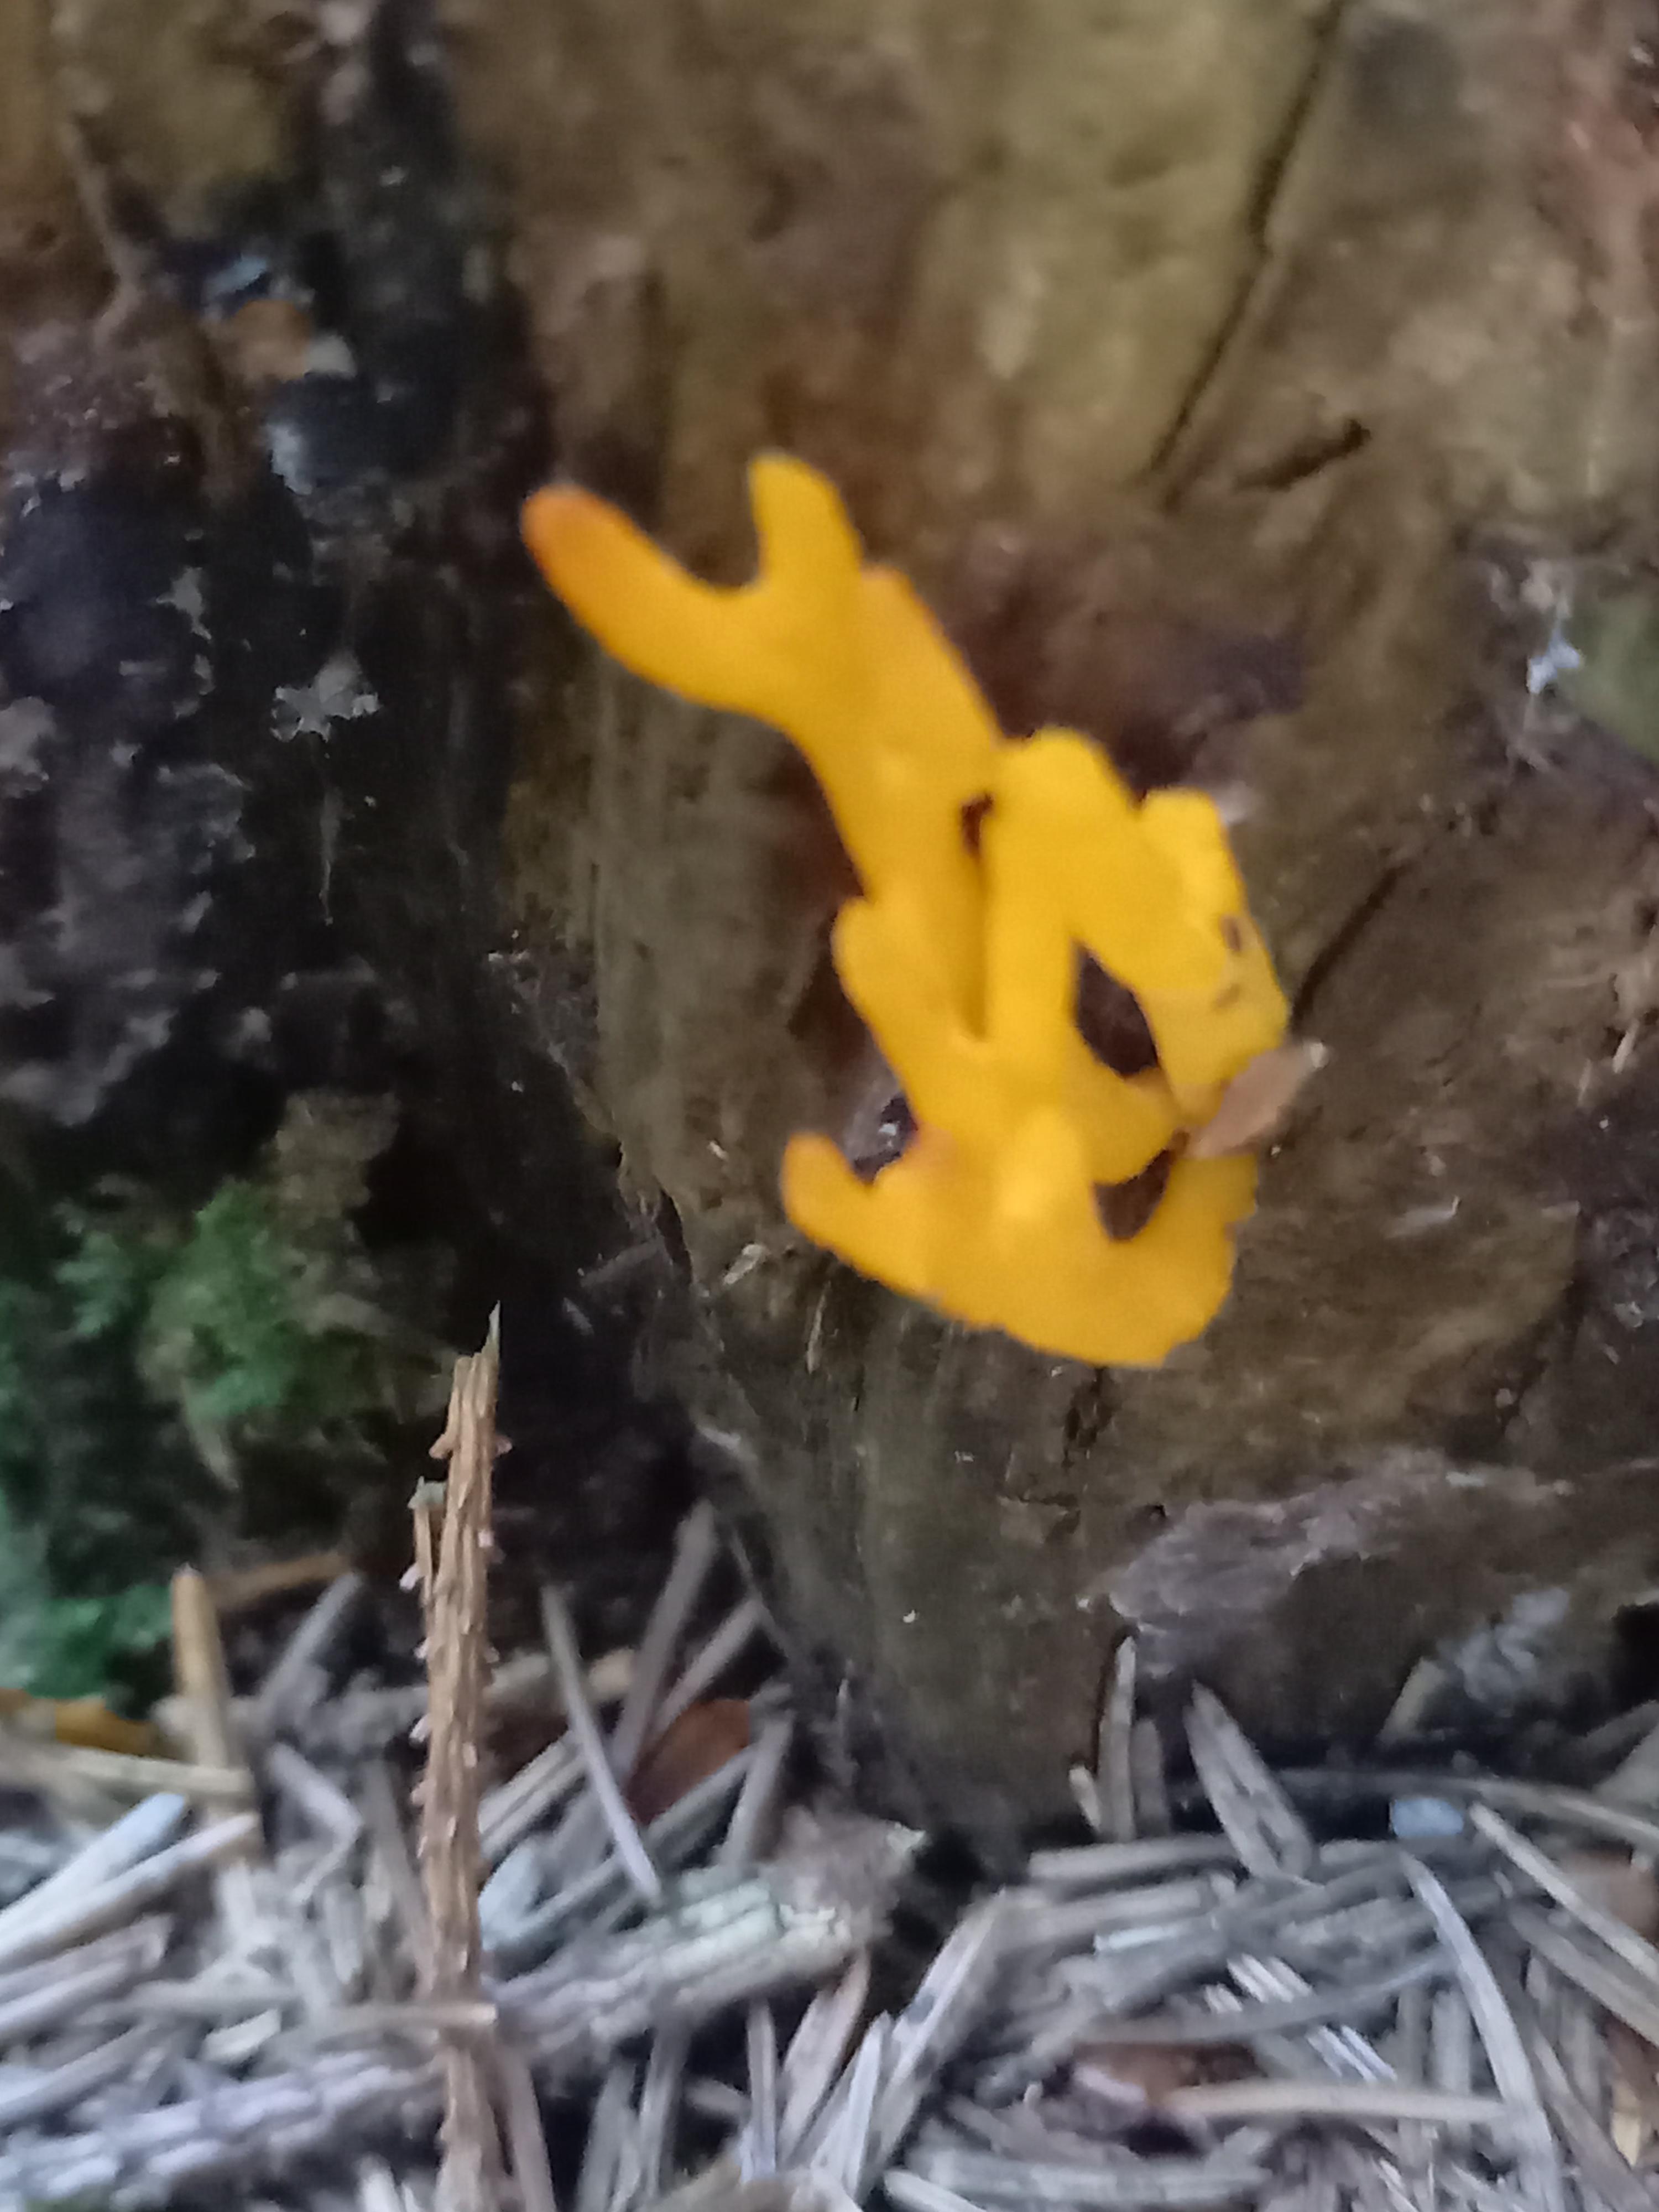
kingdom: Fungi
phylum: Basidiomycota
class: Dacrymycetes
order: Dacrymycetales
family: Dacrymycetaceae
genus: Calocera
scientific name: Calocera viscosa
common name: almindelig guldgaffel
